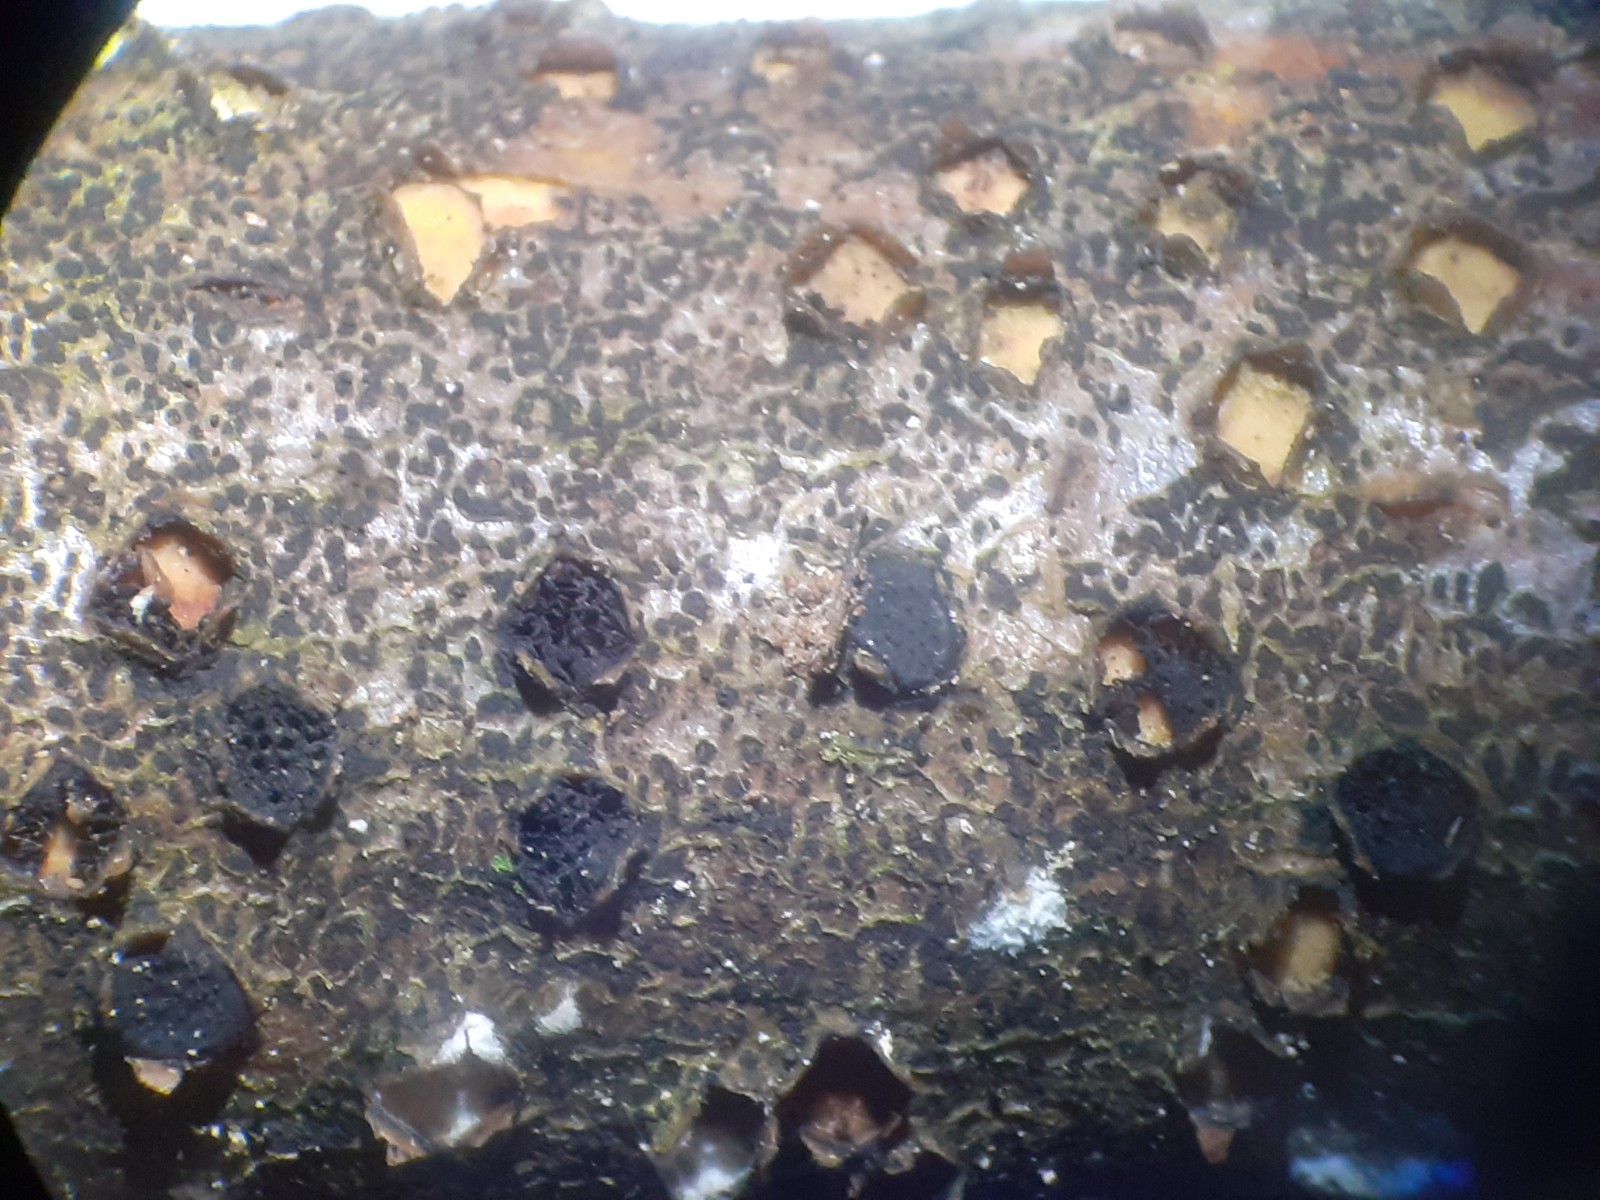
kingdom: Fungi
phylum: Ascomycota
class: Sordariomycetes
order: Xylariales
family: Diatrypaceae
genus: Diatrype
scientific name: Diatrype disciformis
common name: kant-kulskorpe
